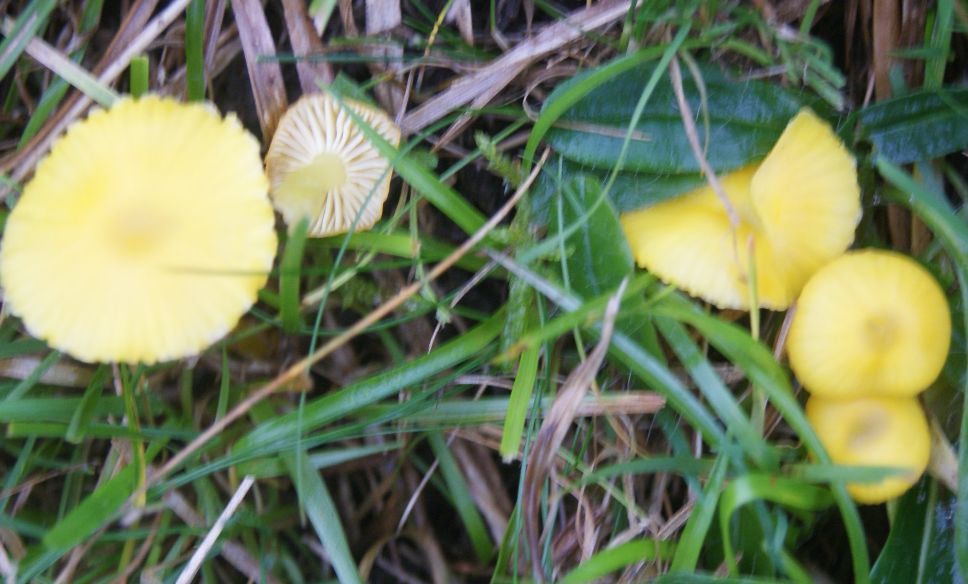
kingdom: Fungi
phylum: Basidiomycota
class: Agaricomycetes
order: Agaricales
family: Hygrophoraceae
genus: Hygrocybe
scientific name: Hygrocybe glutinipes
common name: slimstokket vokshat
